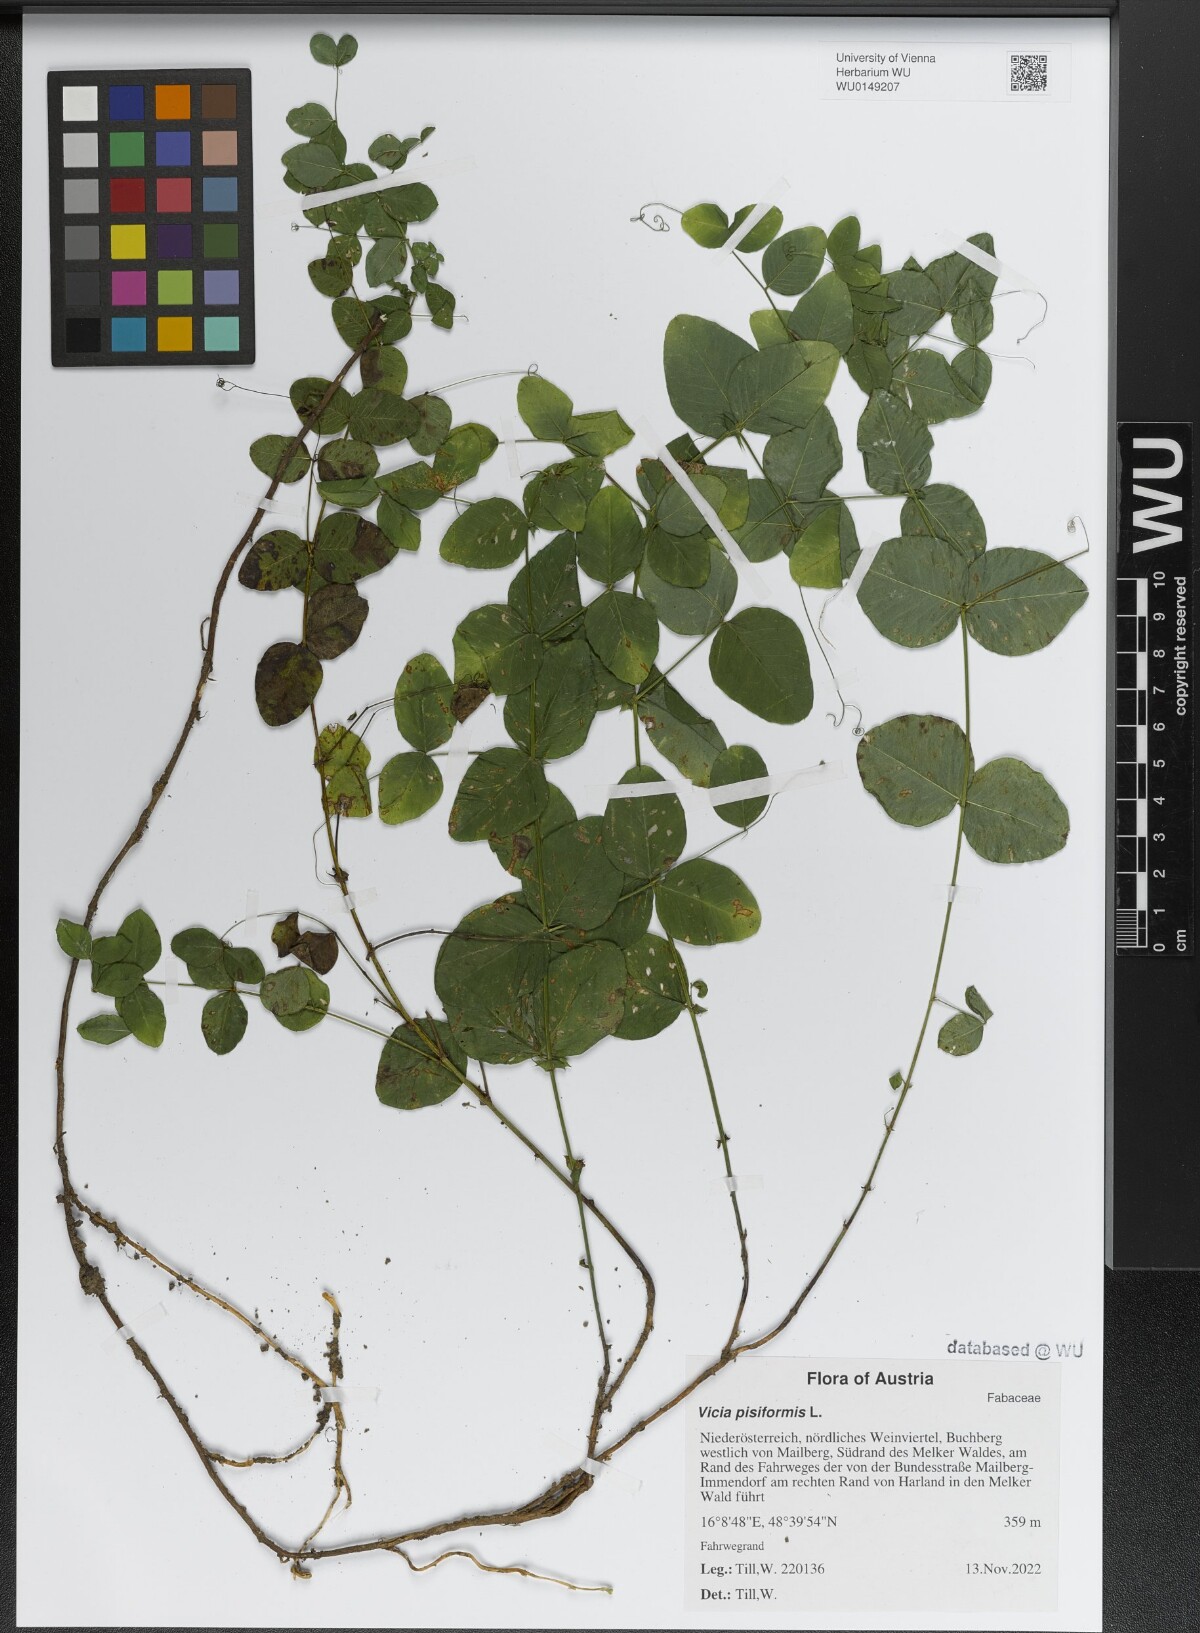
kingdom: Plantae
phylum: Tracheophyta
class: Magnoliopsida
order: Fabales
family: Fabaceae
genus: Vicia
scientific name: Vicia pisiformis
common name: Pale-flower vetch
